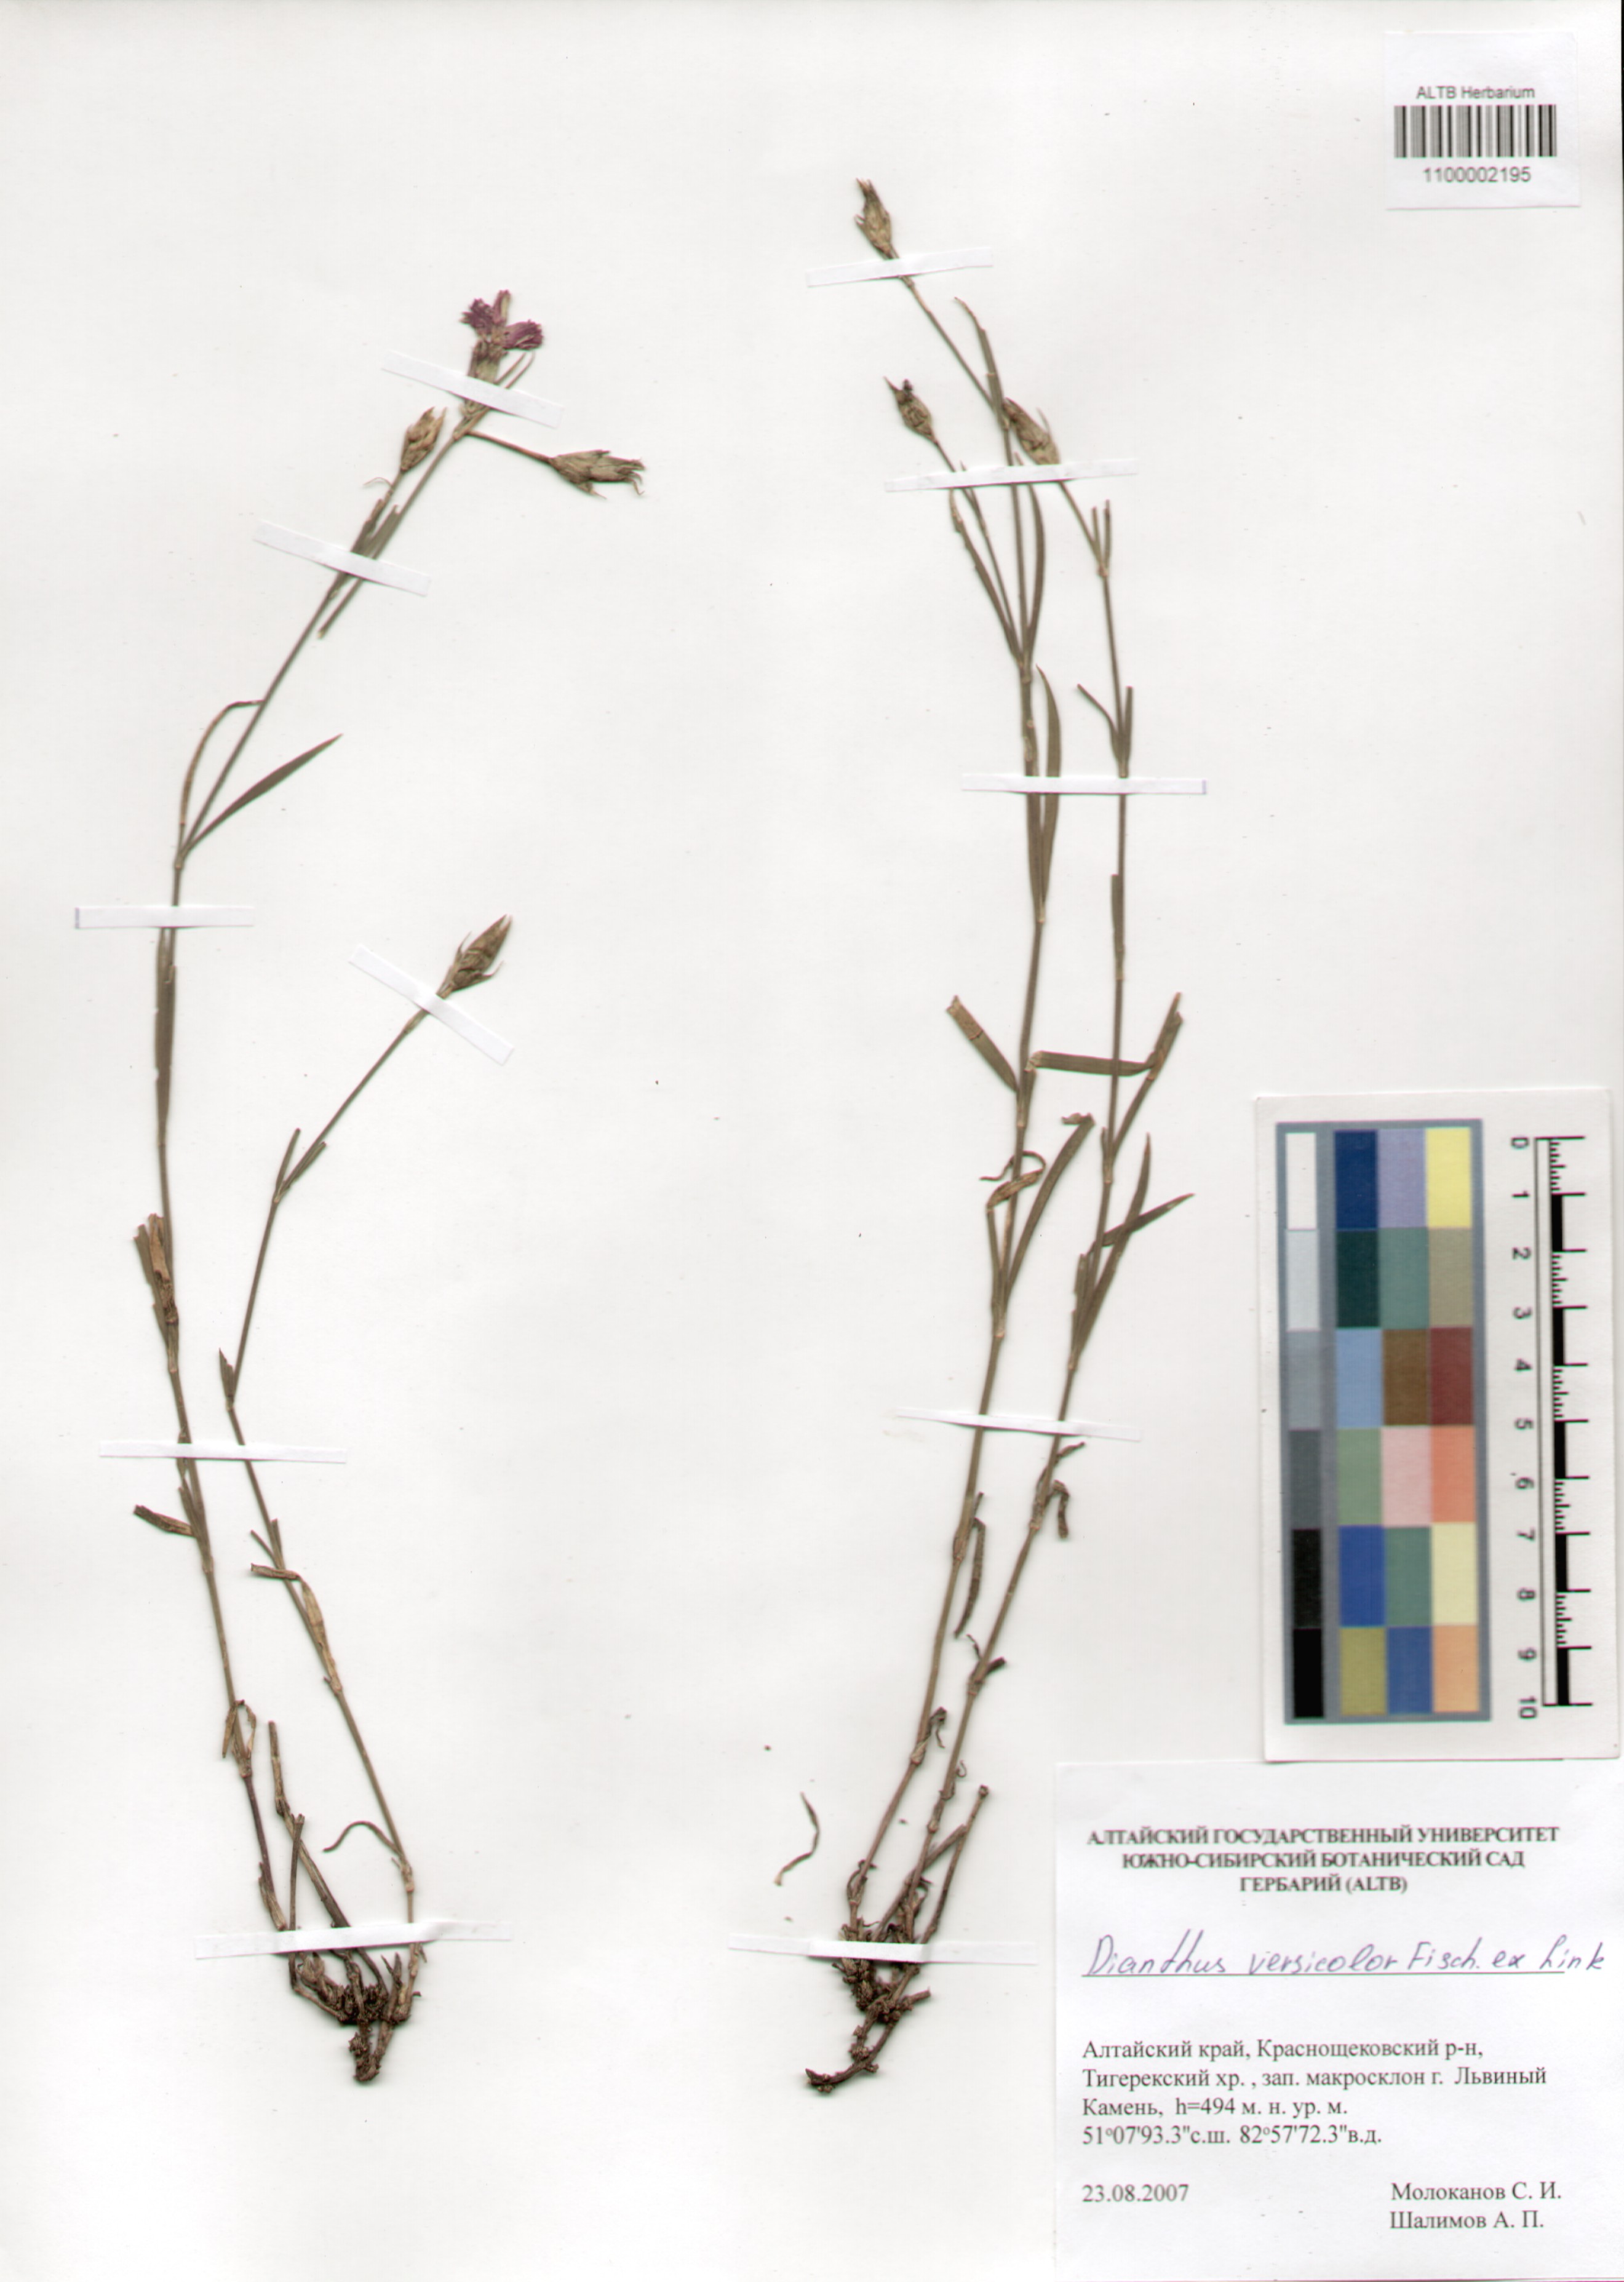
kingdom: Plantae
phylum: Tracheophyta
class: Magnoliopsida
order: Caryophyllales
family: Caryophyllaceae
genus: Dianthus
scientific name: Dianthus chinensis
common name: Rainbow pink
